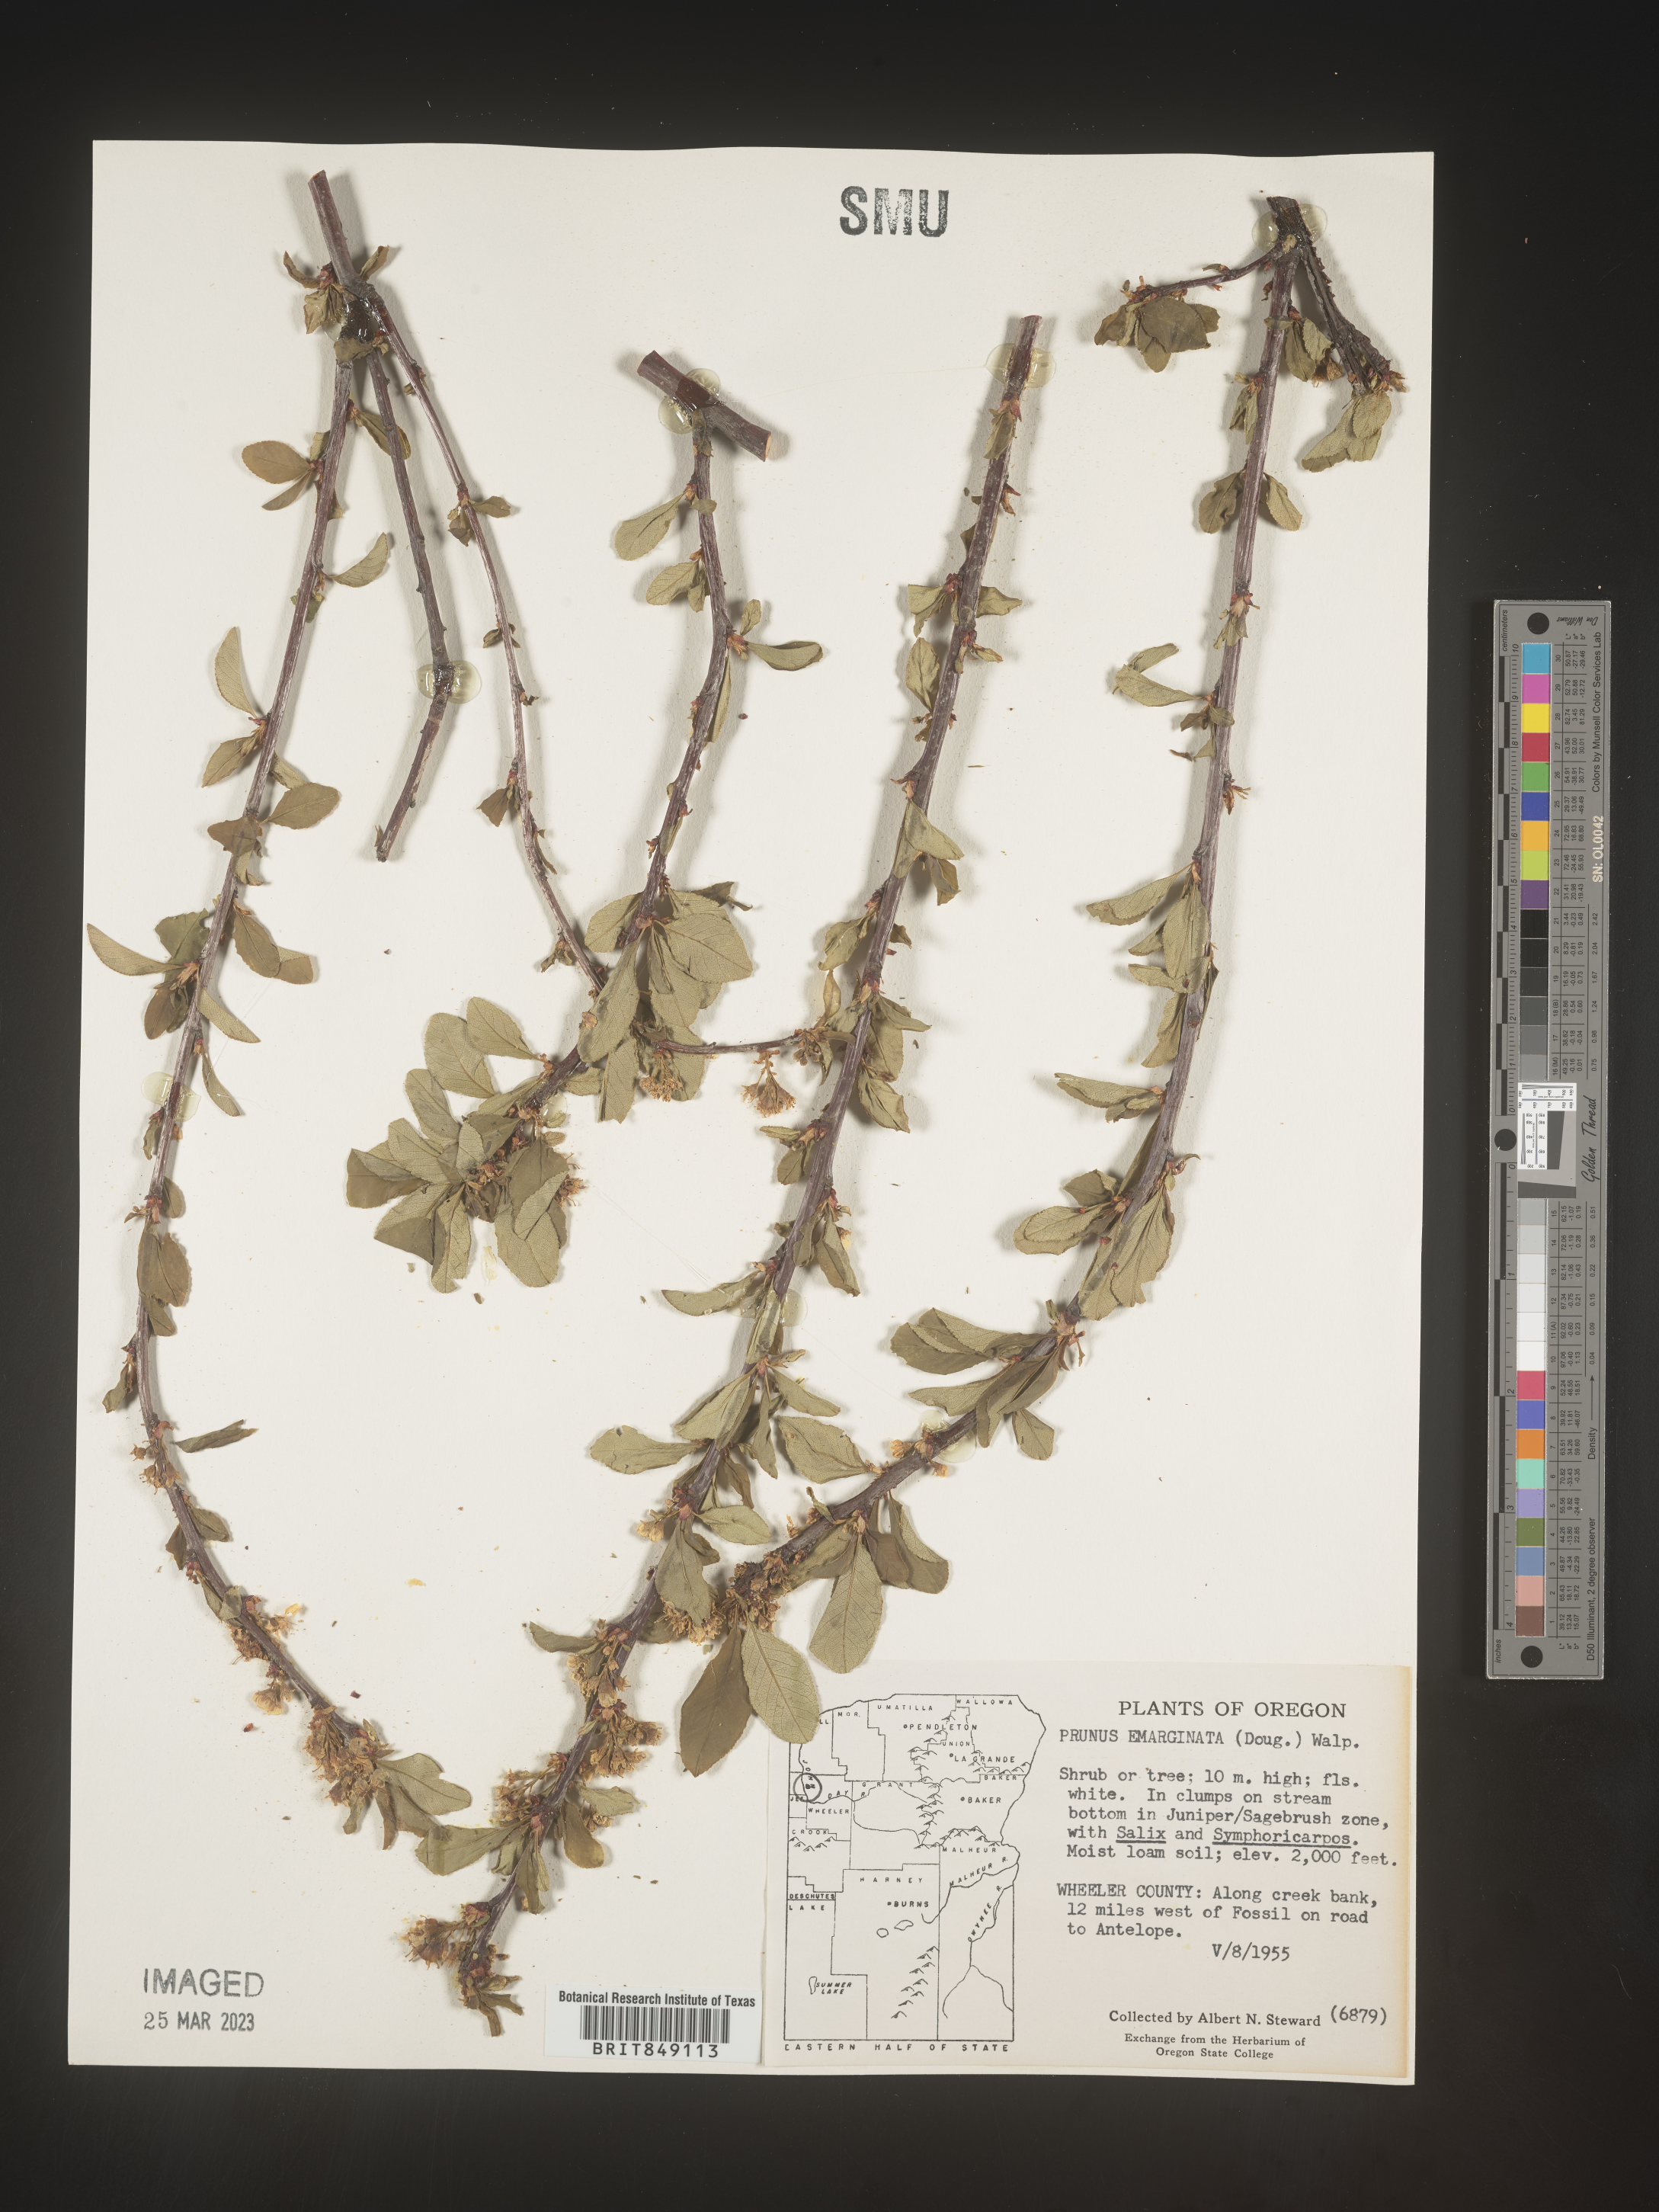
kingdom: Plantae
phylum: Tracheophyta
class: Magnoliopsida
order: Rosales
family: Rosaceae
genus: Prunus
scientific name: Prunus emarginata
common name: Bitter cherry
